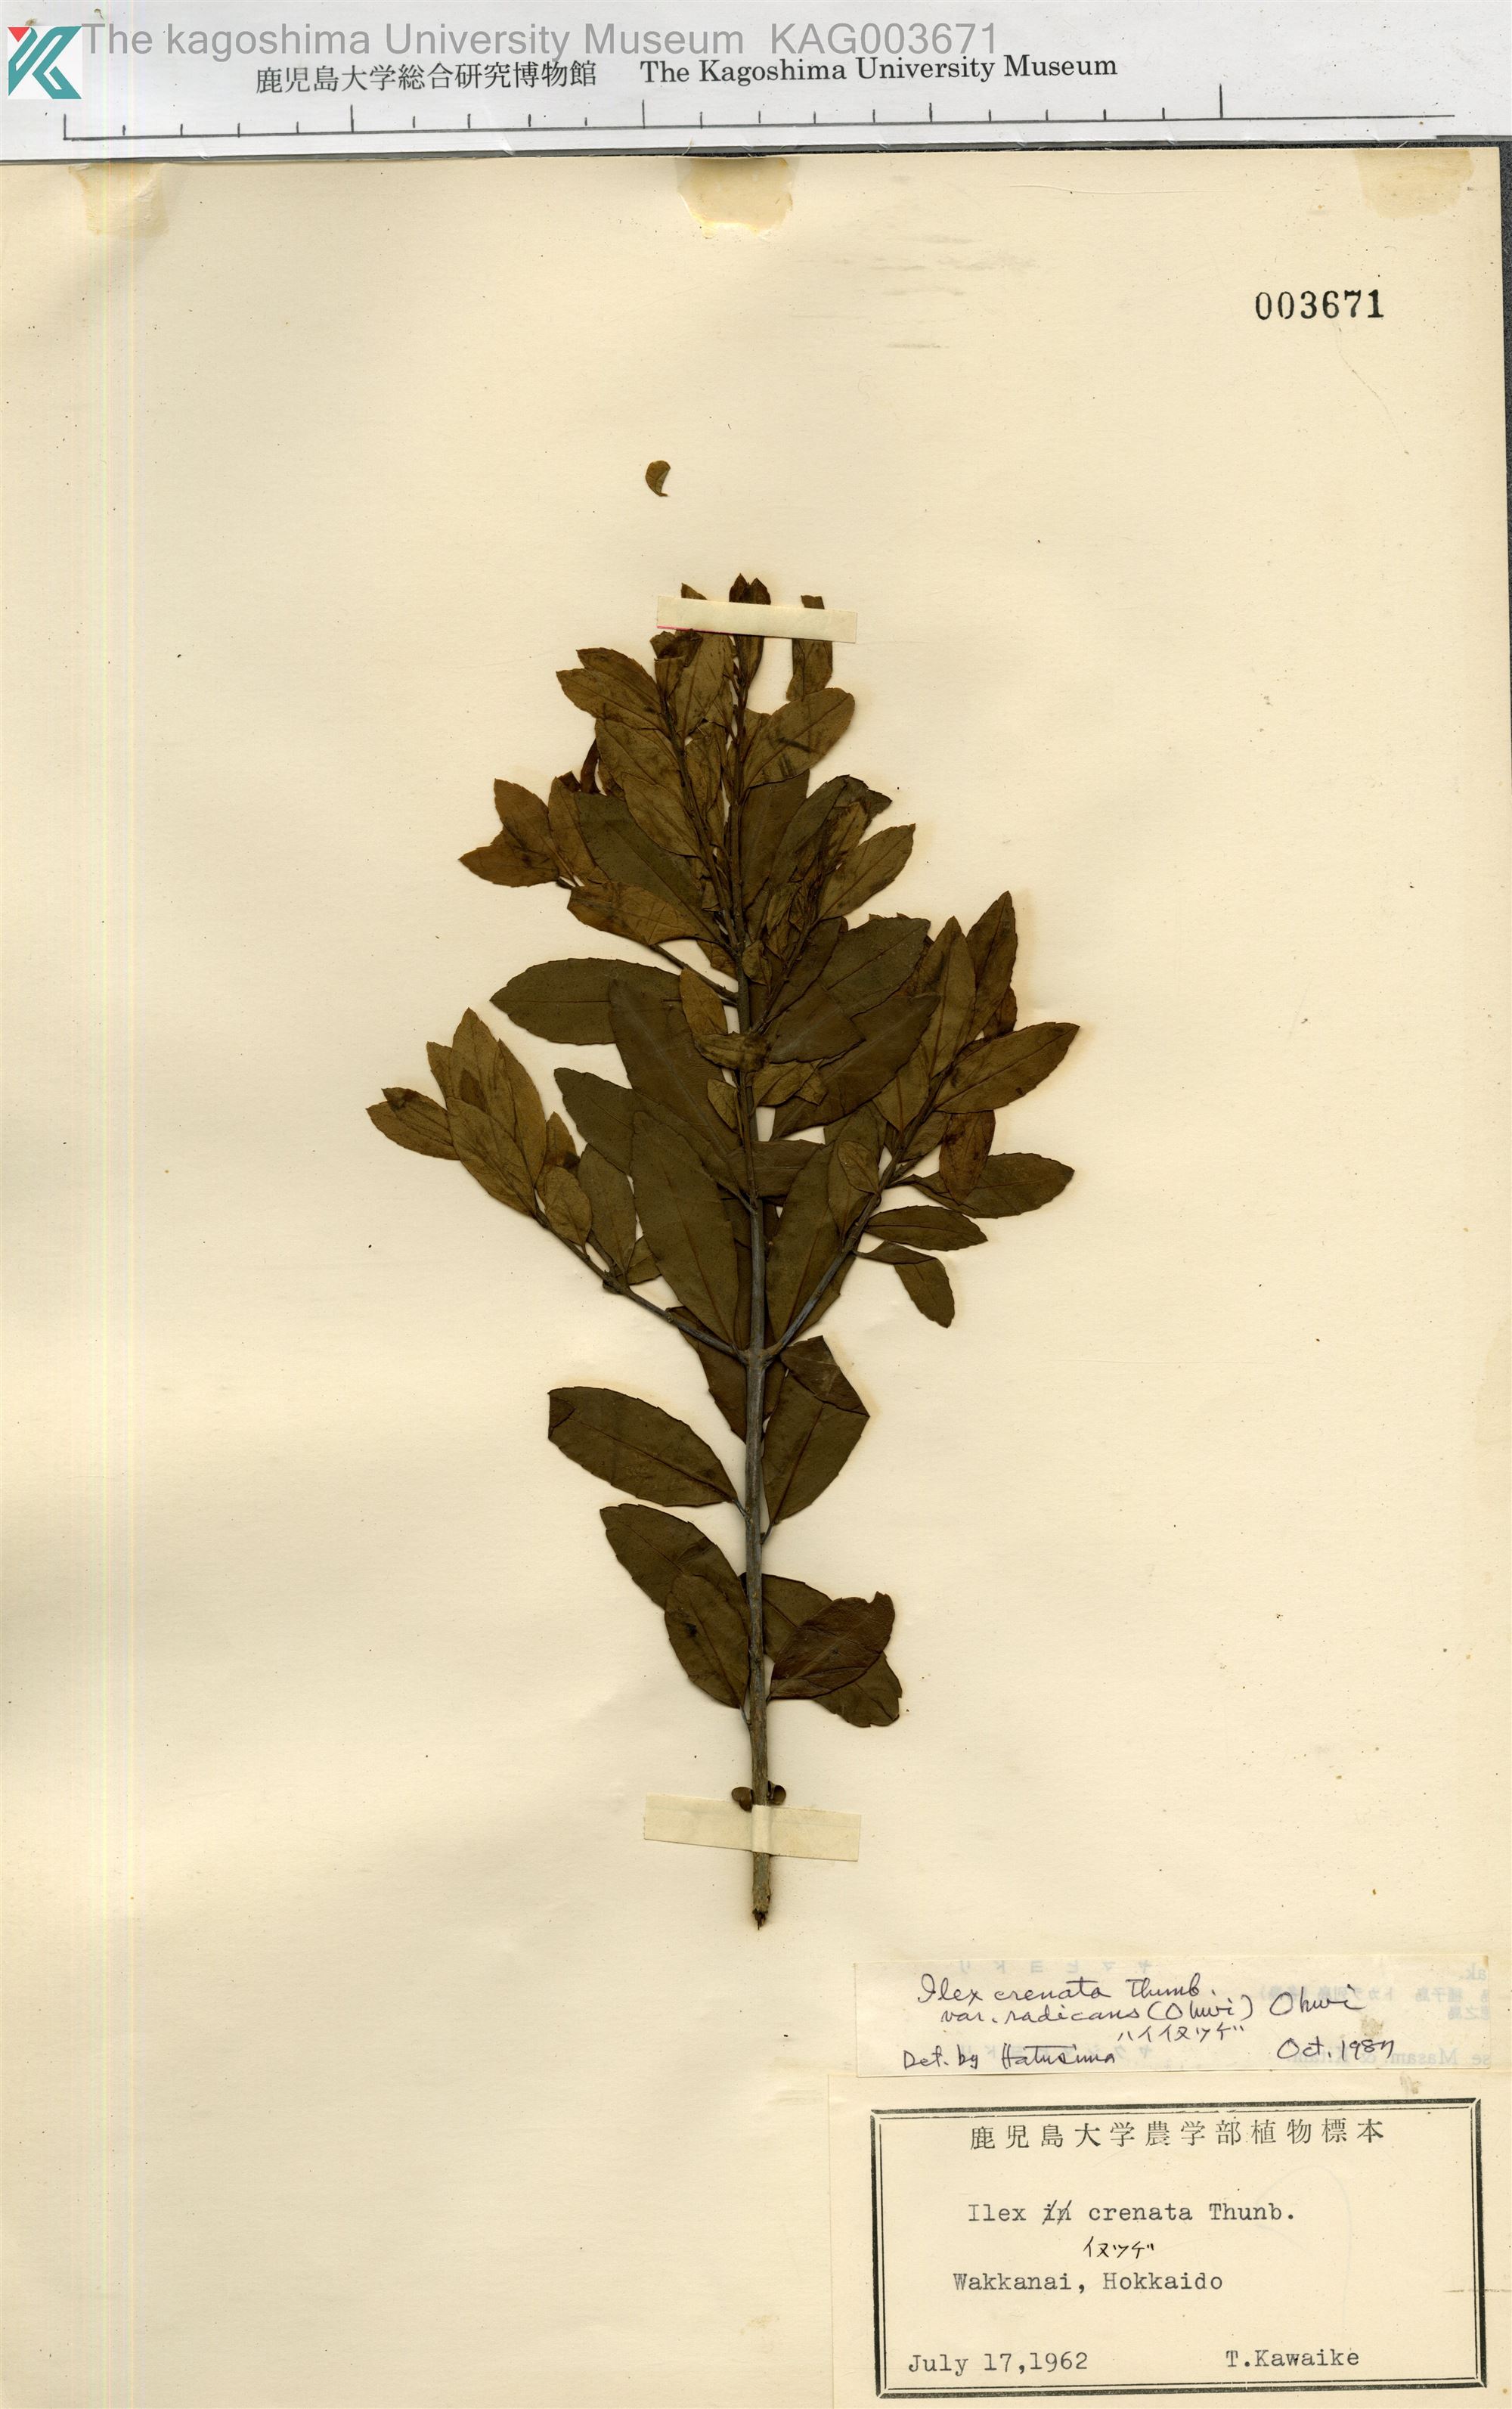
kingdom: Plantae
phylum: Tracheophyta
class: Magnoliopsida
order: Aquifoliales
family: Aquifoliaceae
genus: Ilex
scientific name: Ilex crenata
